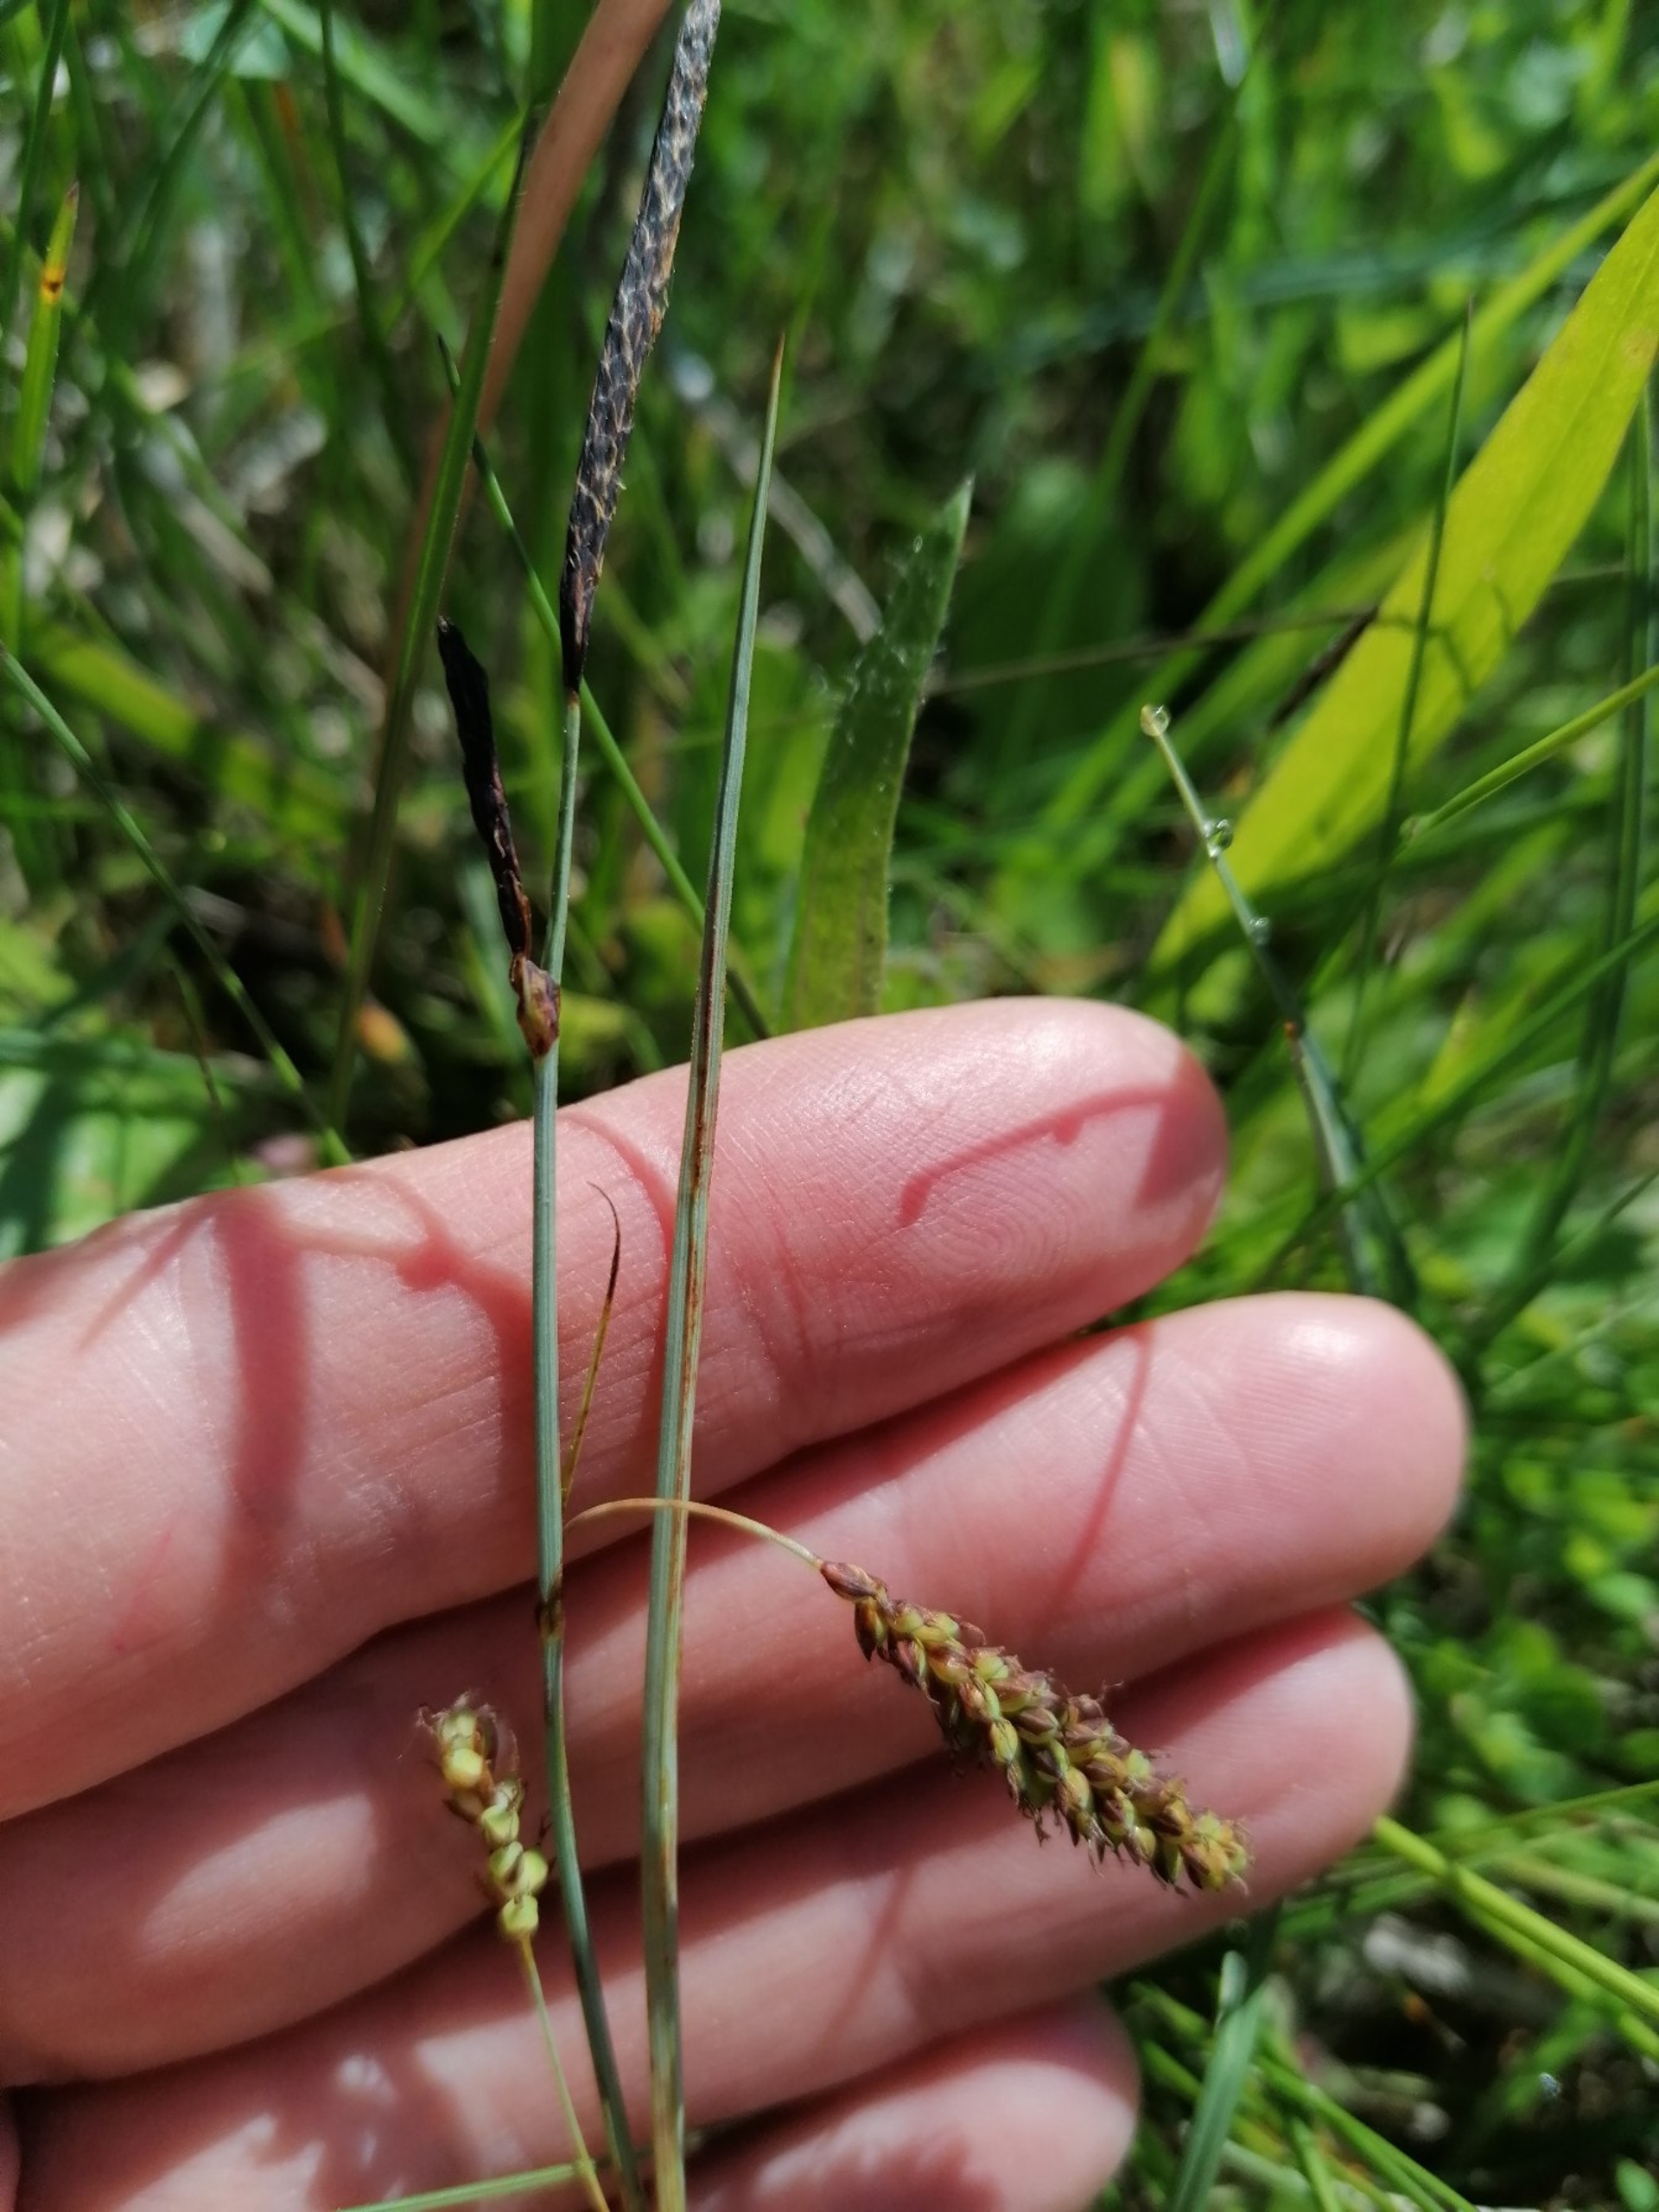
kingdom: Plantae
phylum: Tracheophyta
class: Liliopsida
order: Poales
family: Cyperaceae
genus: Carex
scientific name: Carex flacca
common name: Blågrøn star
